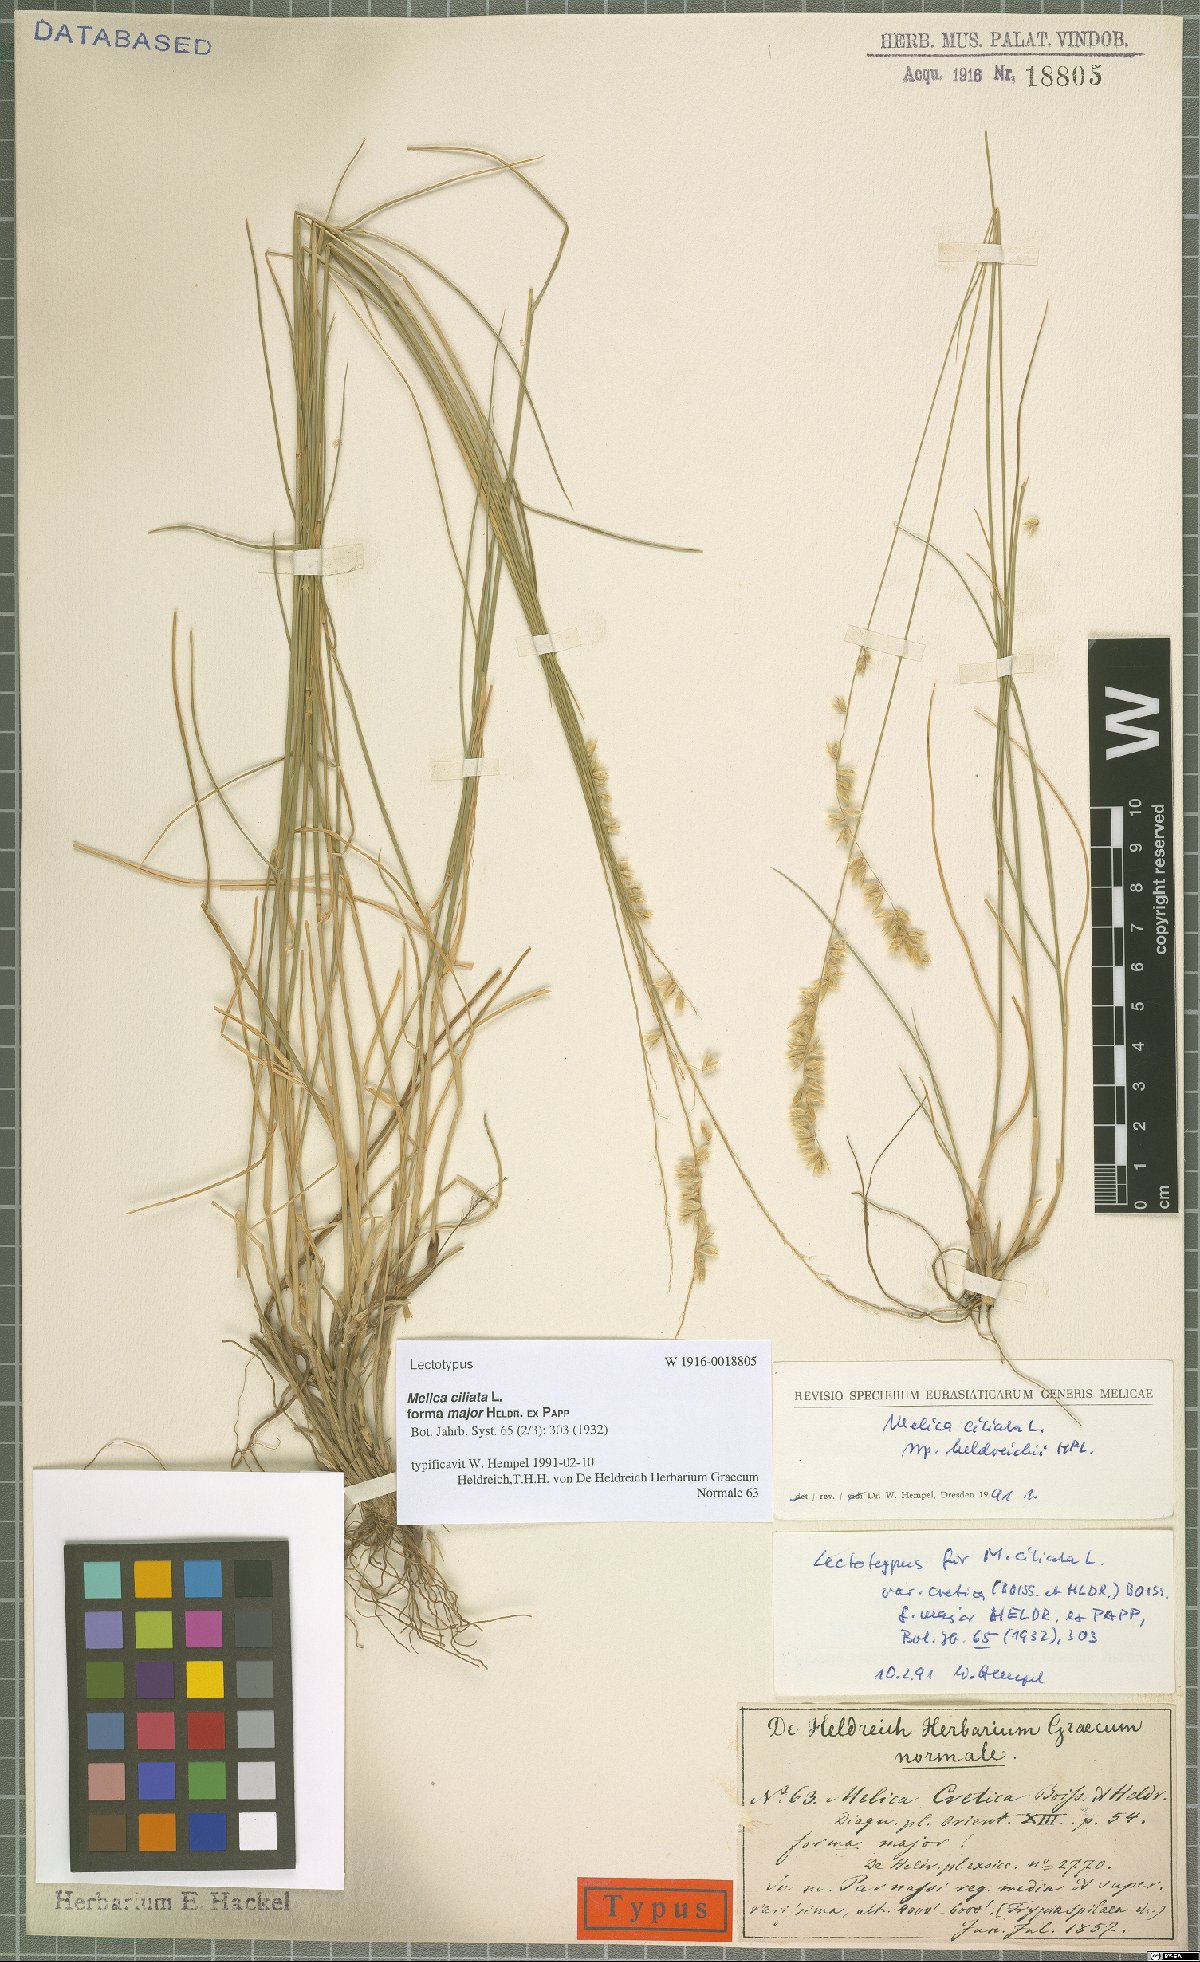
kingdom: Plantae
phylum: Tracheophyta
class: Liliopsida
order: Poales
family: Poaceae
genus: Melica
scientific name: Melica ciliata
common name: Hairy melicgrass
